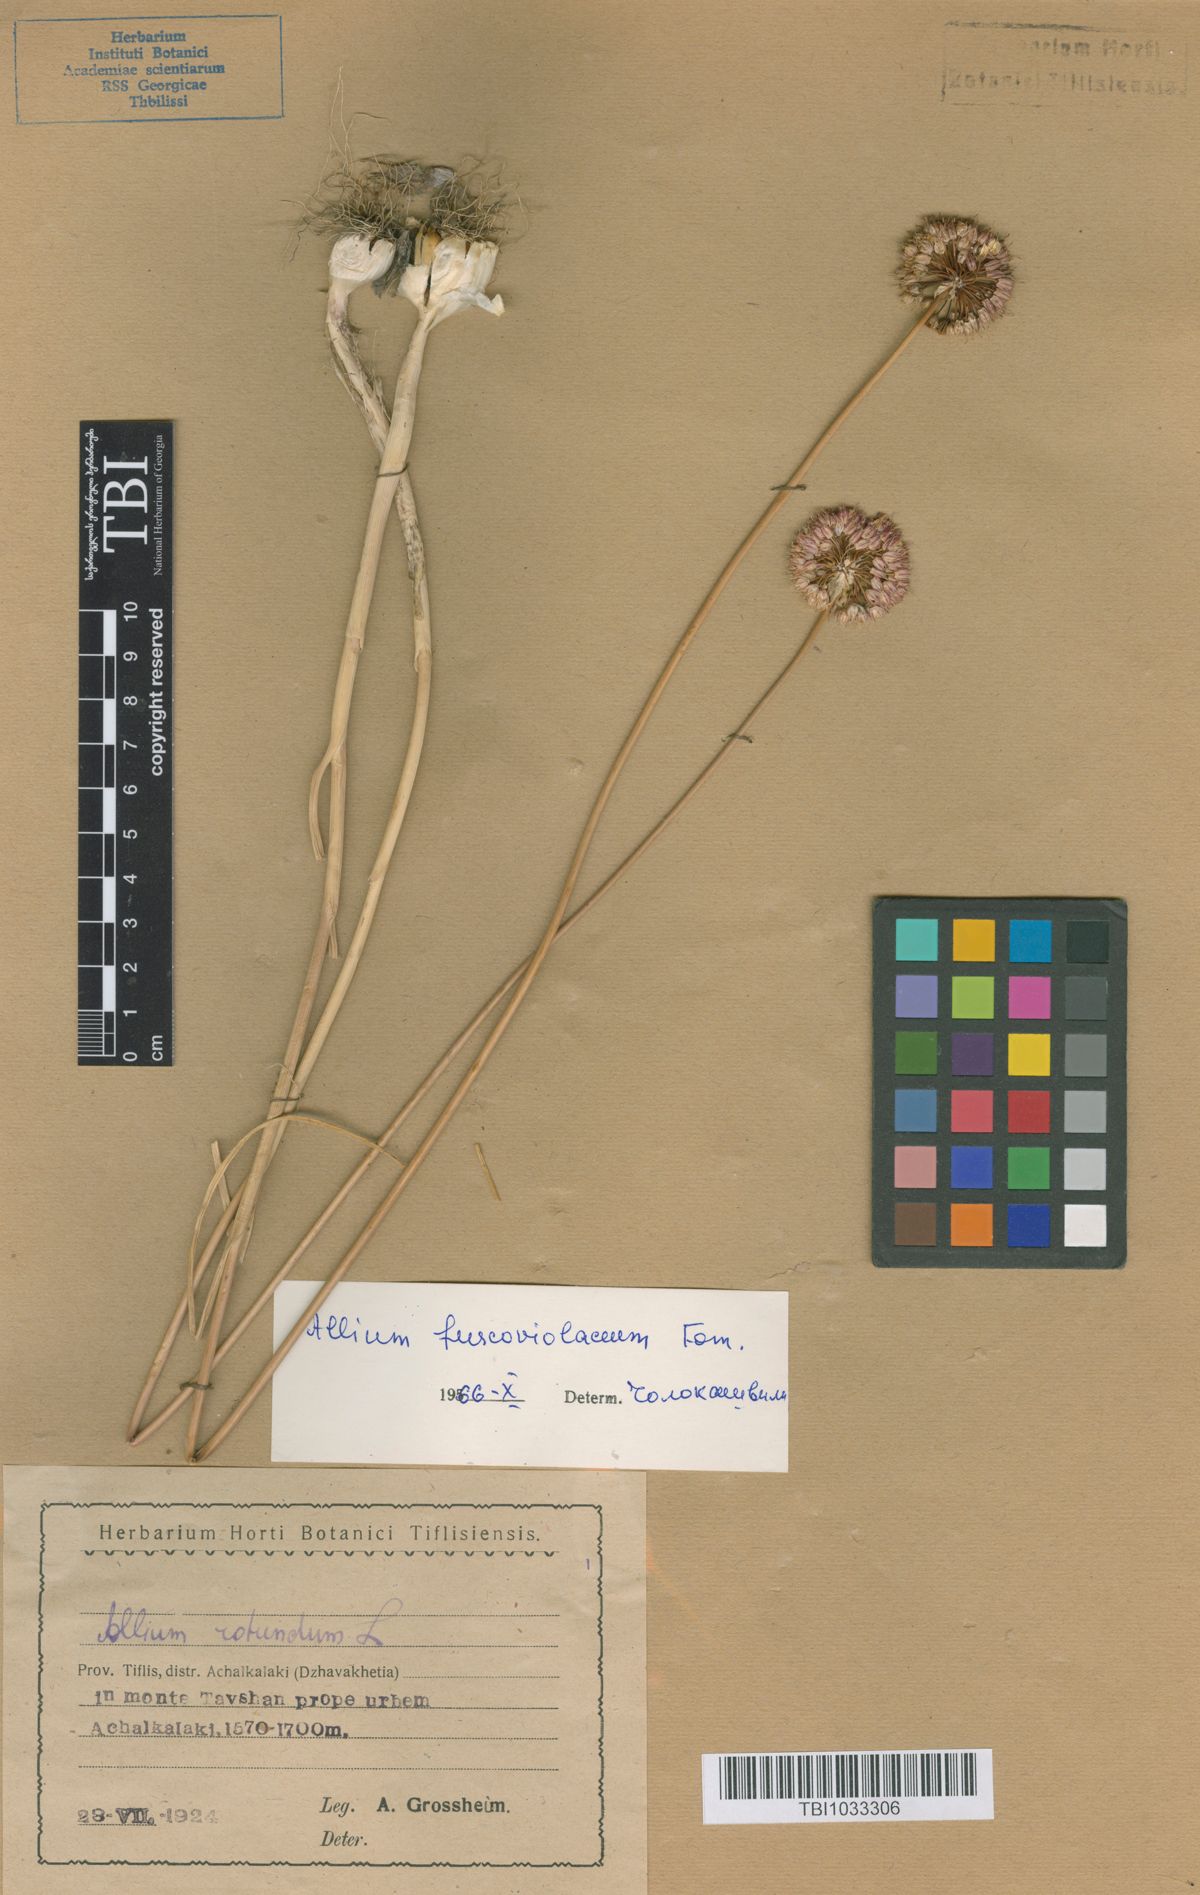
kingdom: Plantae
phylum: Tracheophyta
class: Liliopsida
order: Asparagales
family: Amaryllidaceae
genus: Allium
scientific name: Allium fuscoviolaceum
